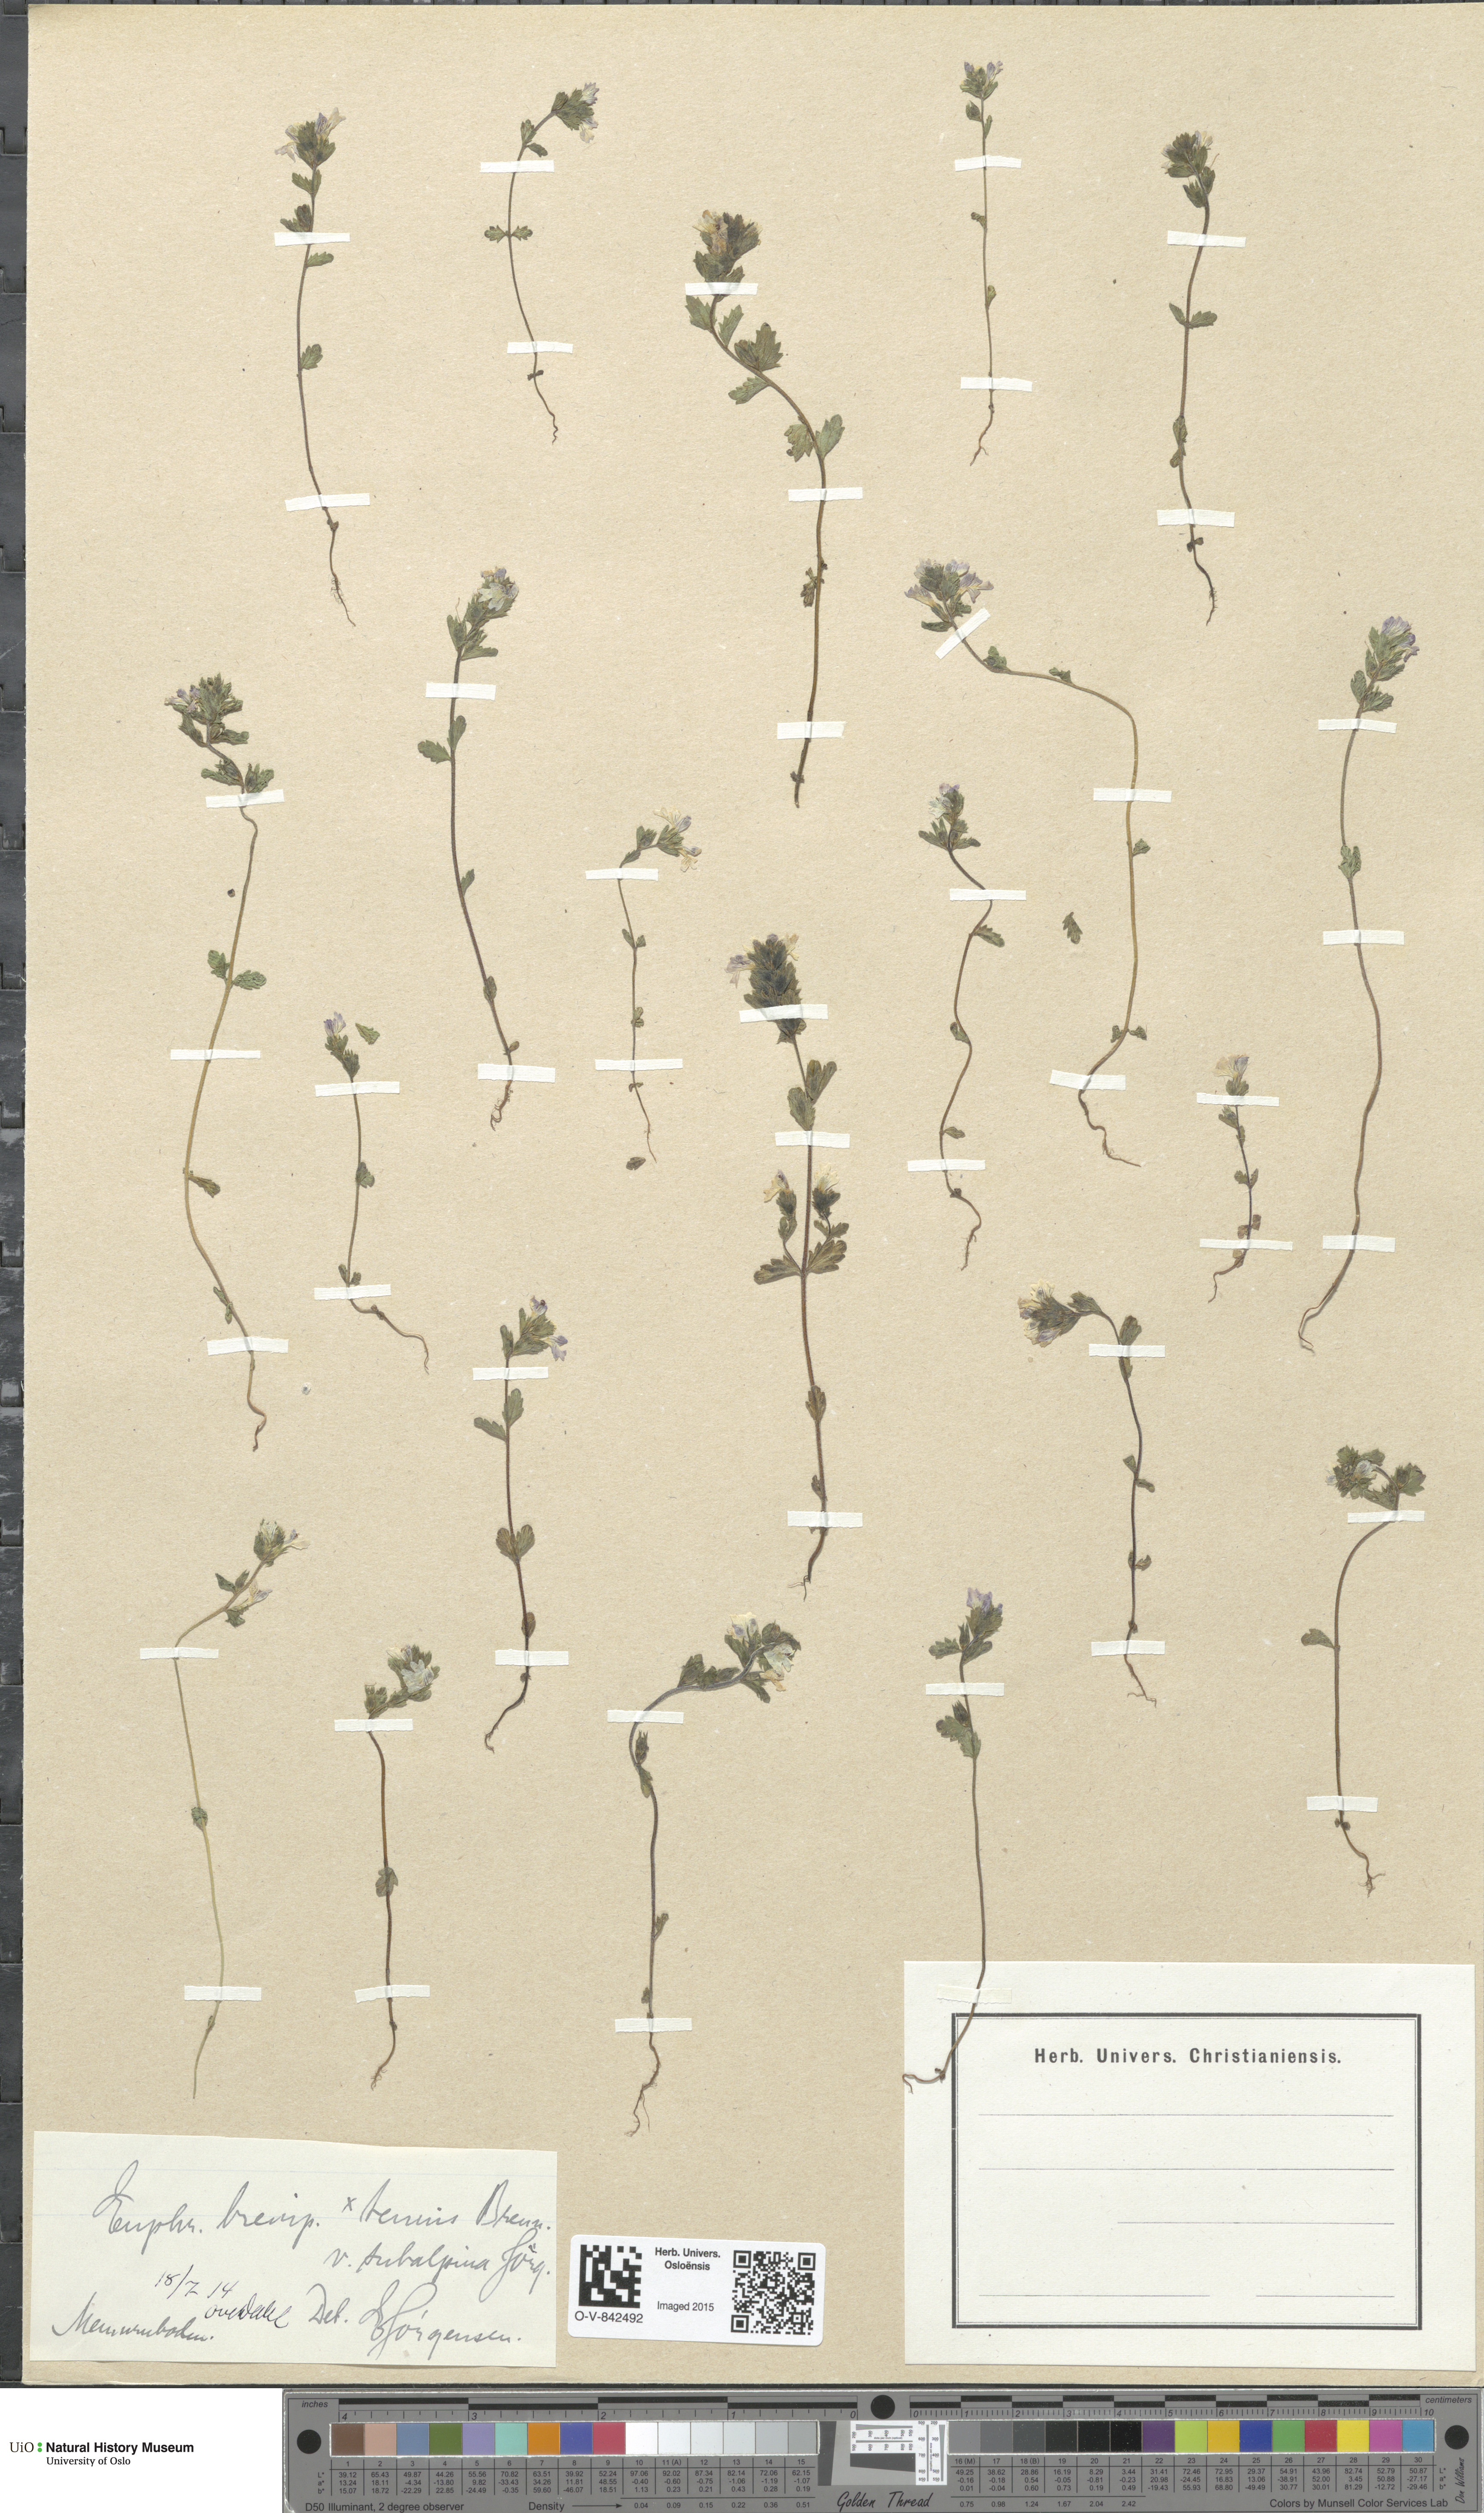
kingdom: Plantae
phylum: Tracheophyta
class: Magnoliopsida
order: Lamiales
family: Orobanchaceae
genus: Euphrasia
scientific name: Euphrasia vernalis
